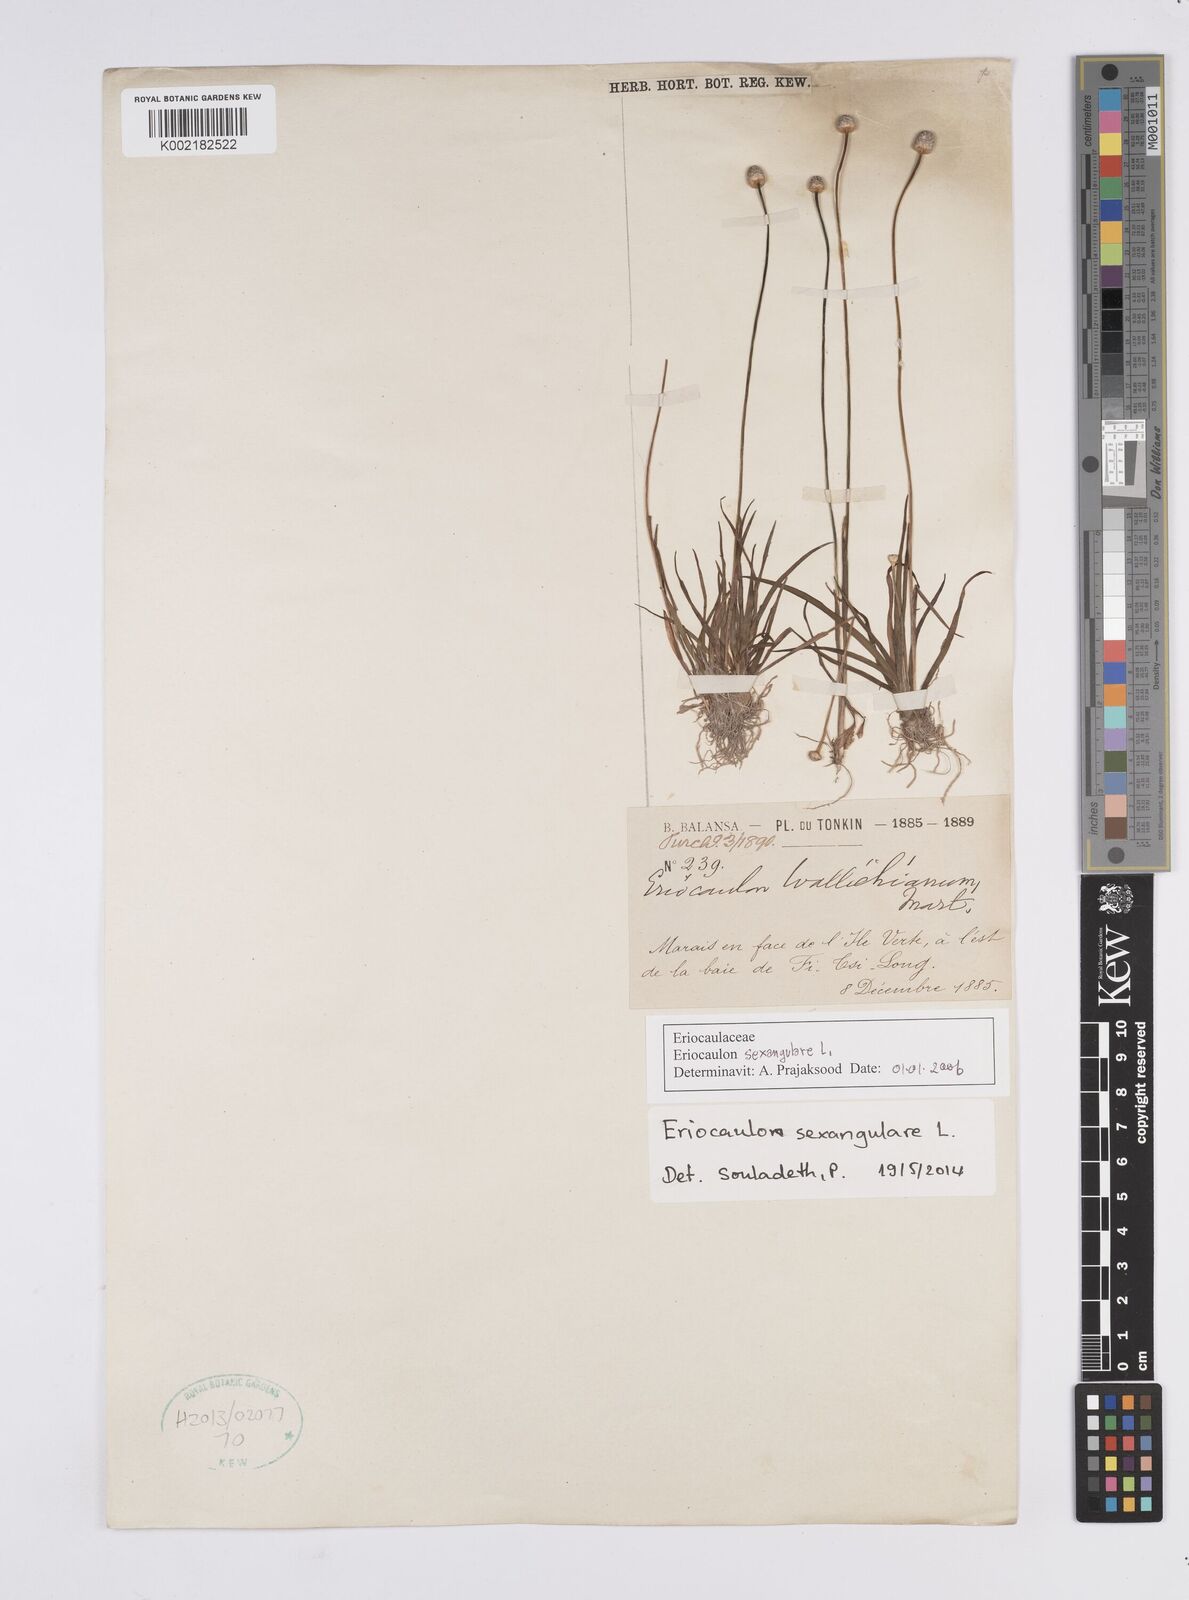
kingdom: Plantae
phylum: Tracheophyta
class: Liliopsida
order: Poales
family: Eriocaulaceae
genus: Eriocaulon
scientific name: Eriocaulon sexangulare
